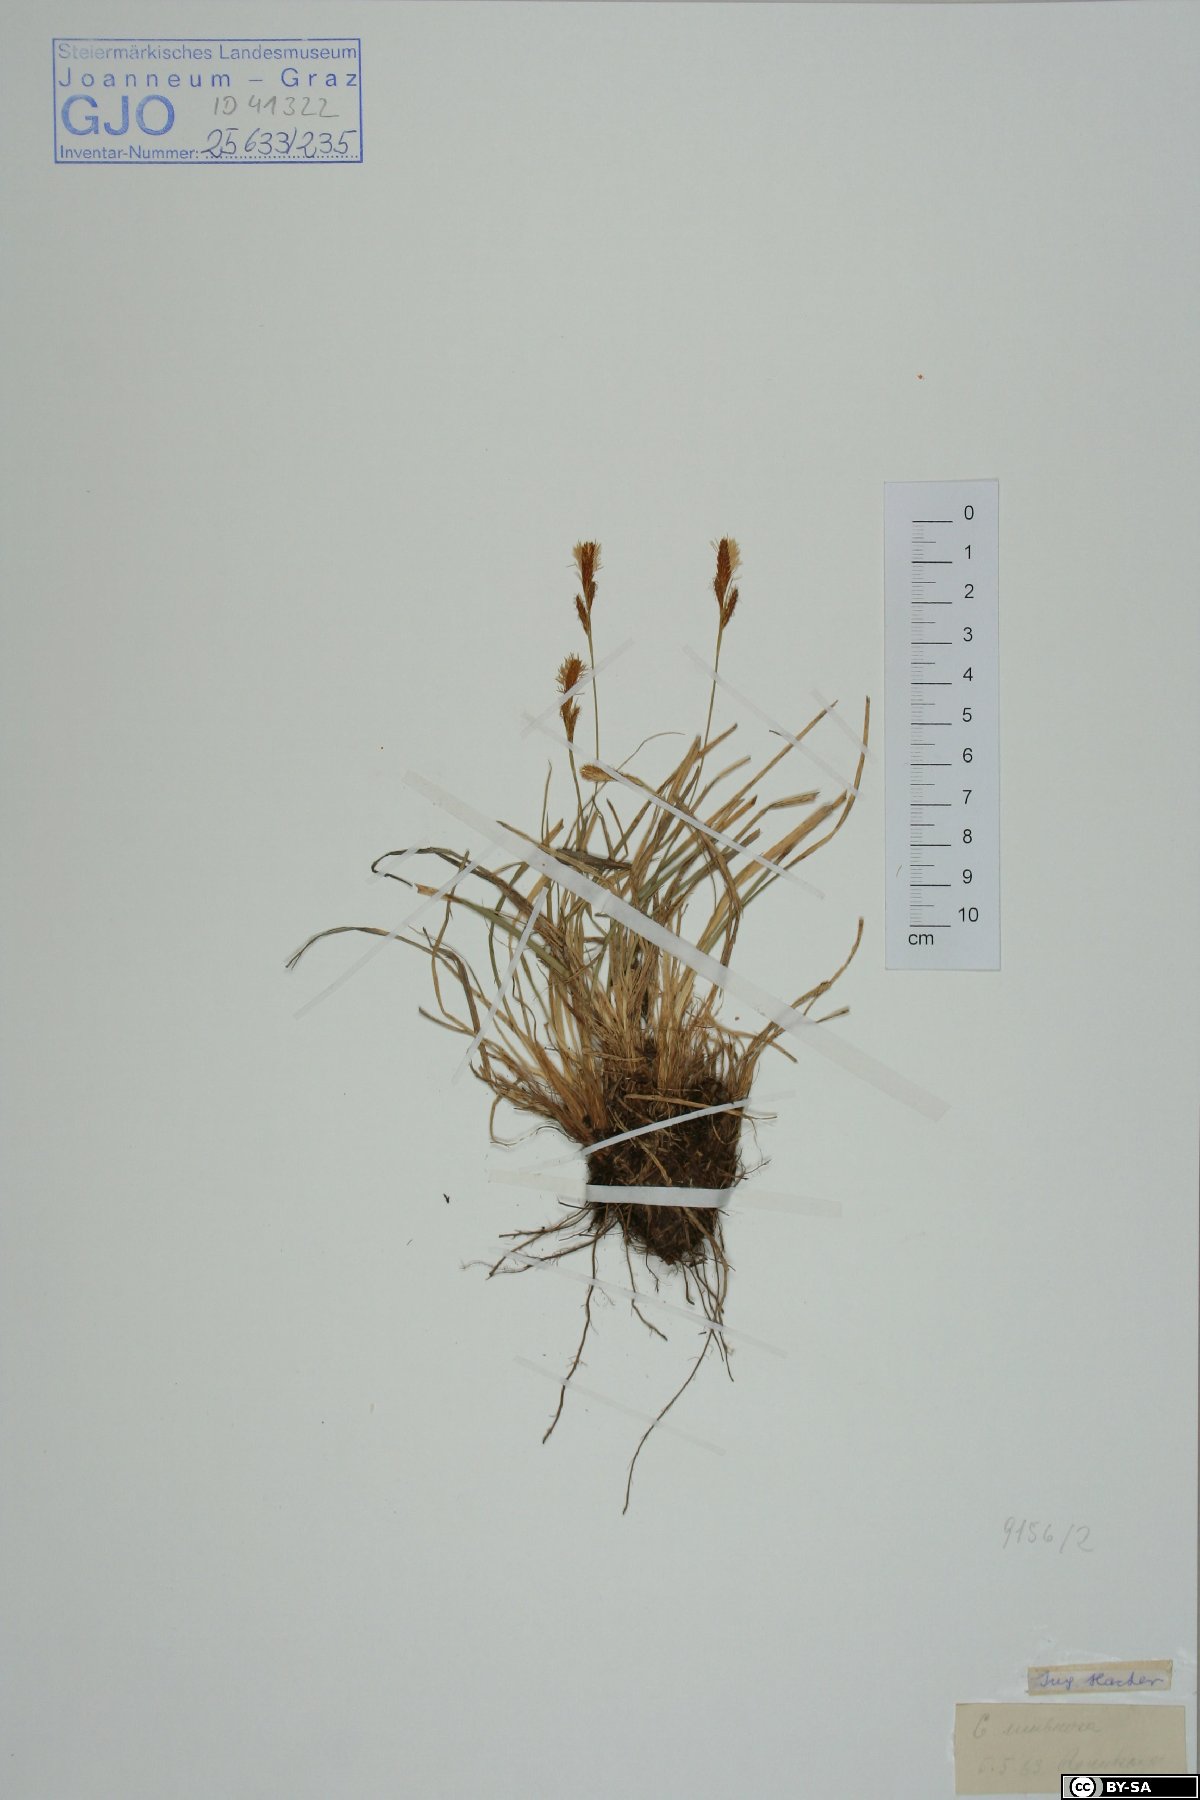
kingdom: Plantae
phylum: Tracheophyta
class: Liliopsida
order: Poales
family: Cyperaceae
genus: Carex
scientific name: Carex umbrosa
